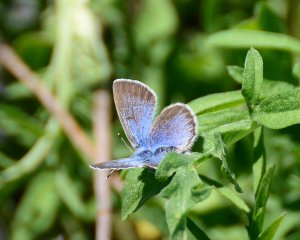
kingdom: Animalia
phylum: Arthropoda
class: Insecta
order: Lepidoptera
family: Lycaenidae
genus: Glaucopsyche
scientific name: Glaucopsyche lygdamus
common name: Silvery Blue
